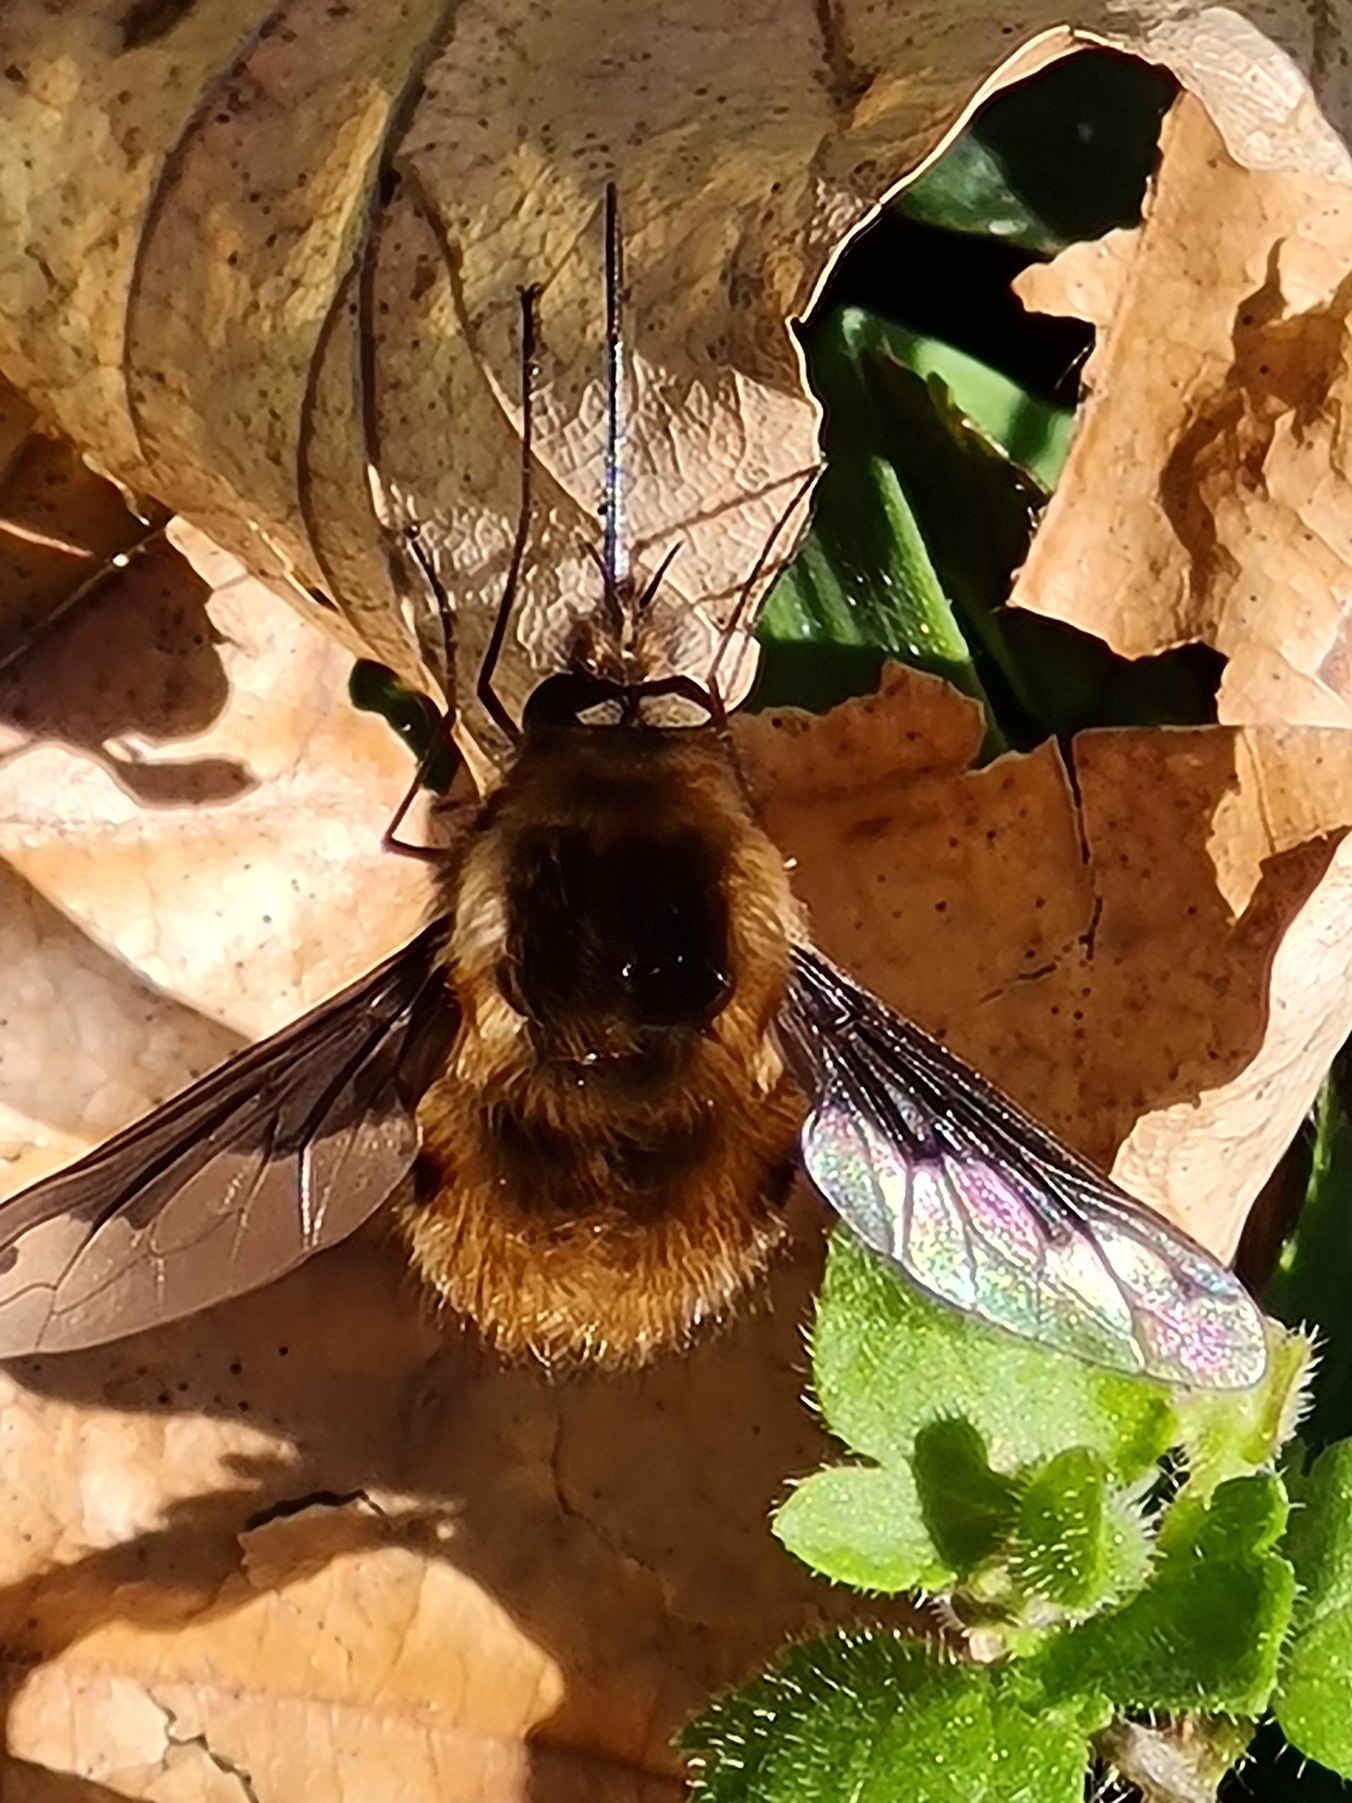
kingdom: Animalia
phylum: Arthropoda
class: Insecta
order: Diptera
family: Bombyliidae
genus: Bombylius
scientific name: Bombylius major
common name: Stor humleflue
